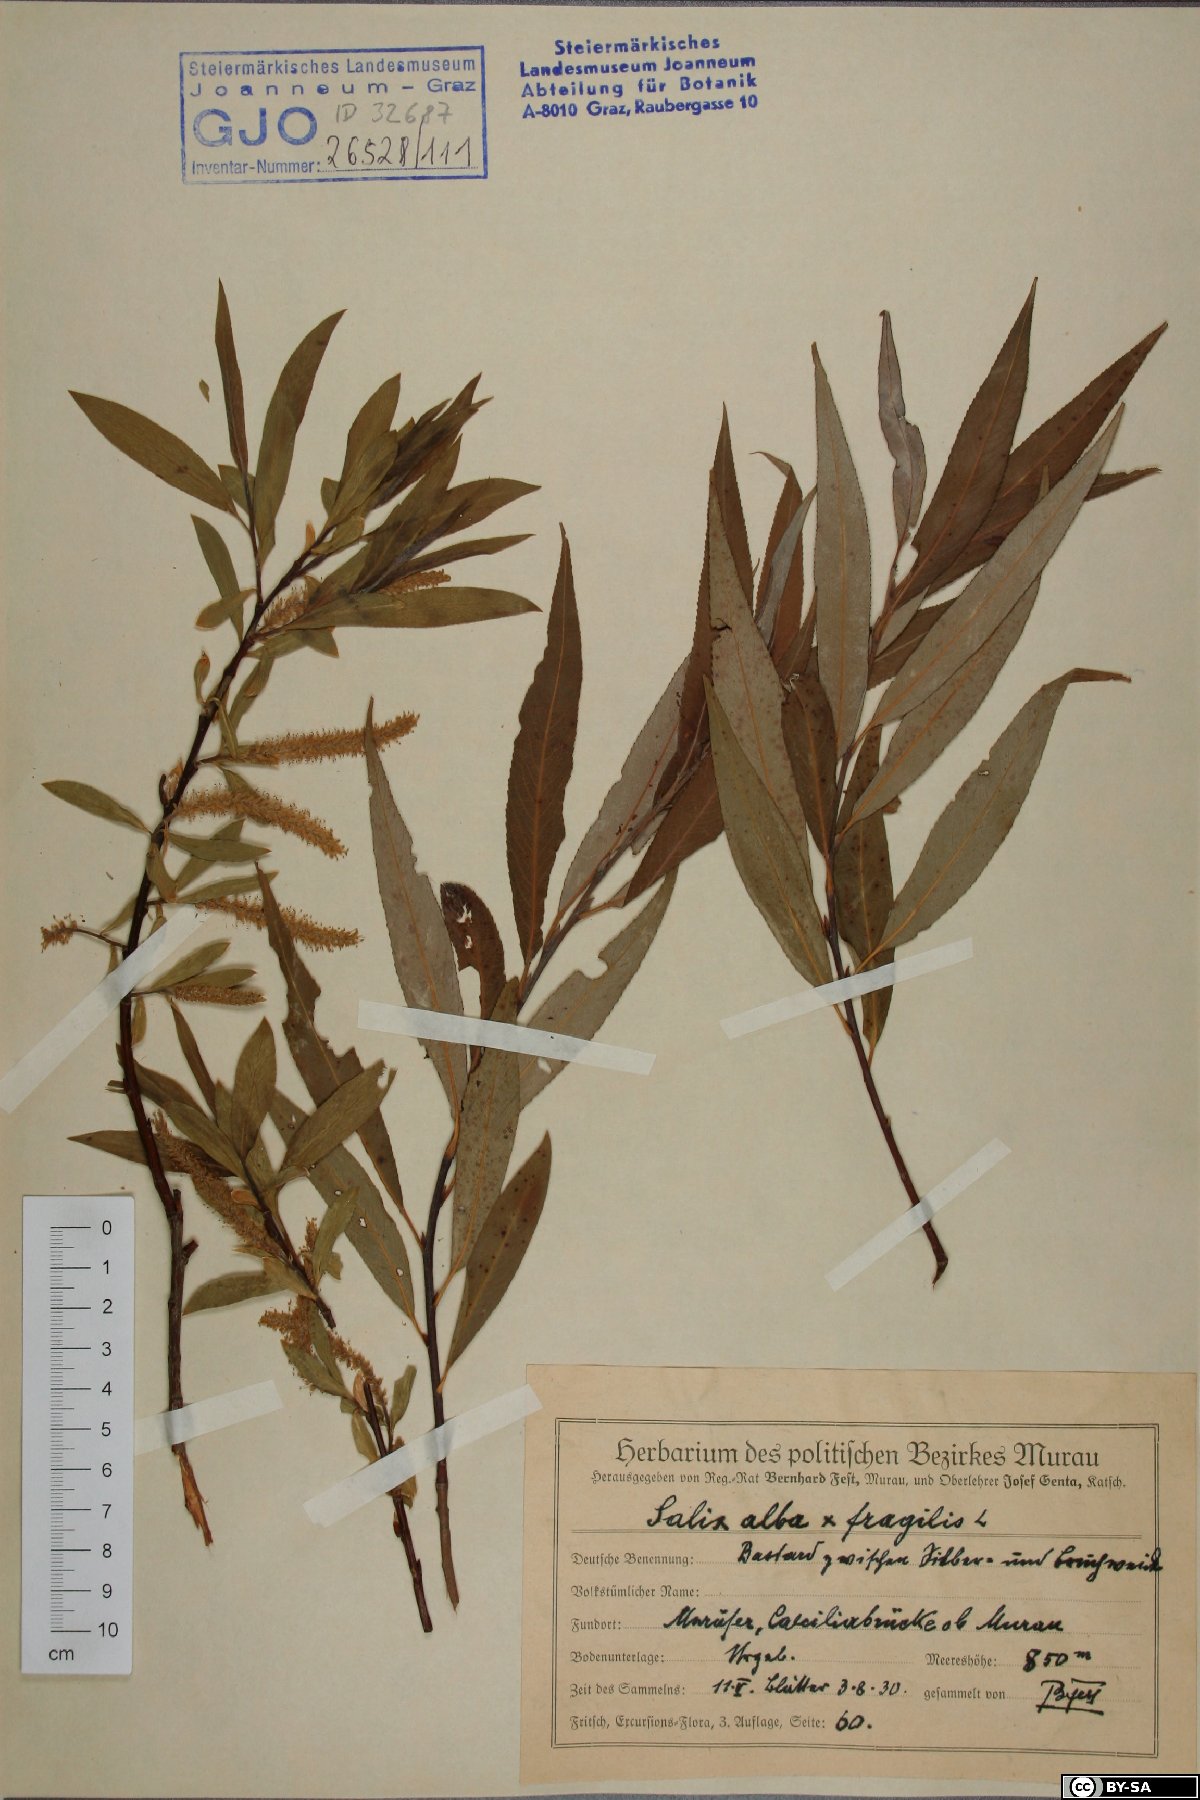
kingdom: Plantae
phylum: Tracheophyta
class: Magnoliopsida
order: Malpighiales
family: Salicaceae
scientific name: Salicaceae
